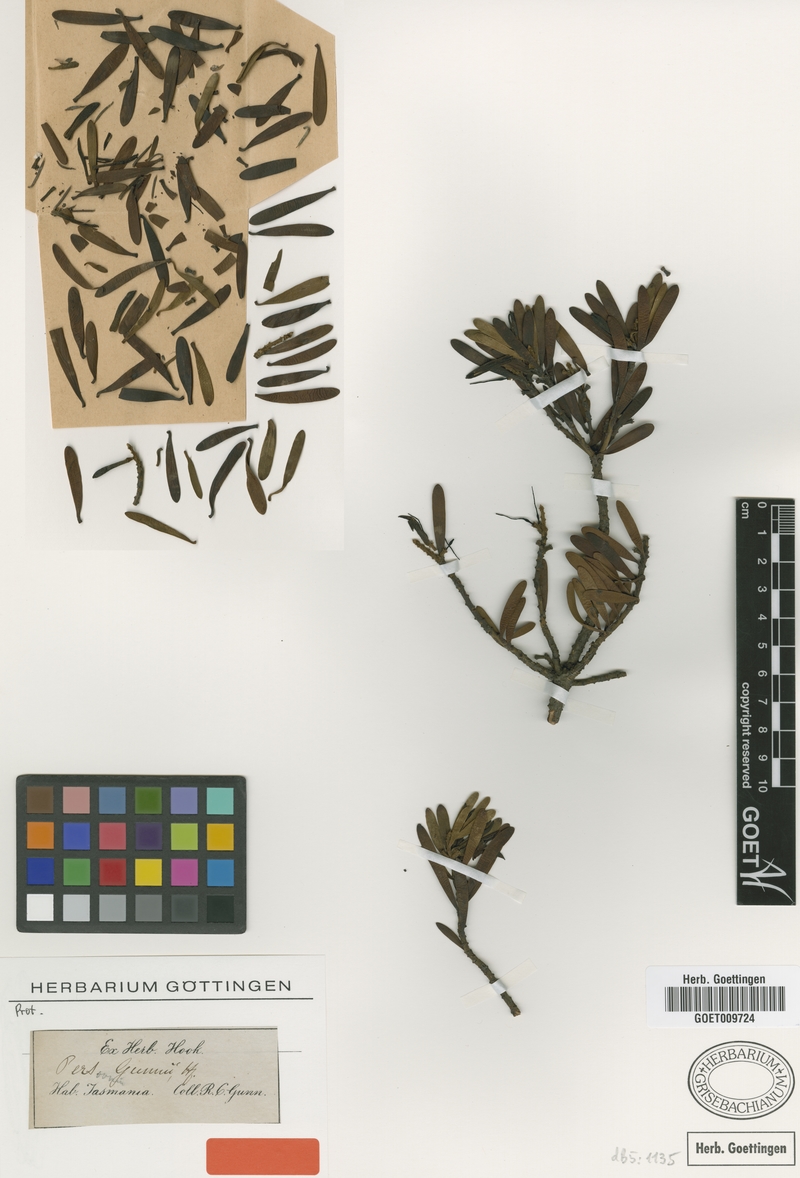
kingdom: Plantae
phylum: Tracheophyta
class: Magnoliopsida
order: Proteales
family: Proteaceae
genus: Persoonia
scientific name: Persoonia gunnii
